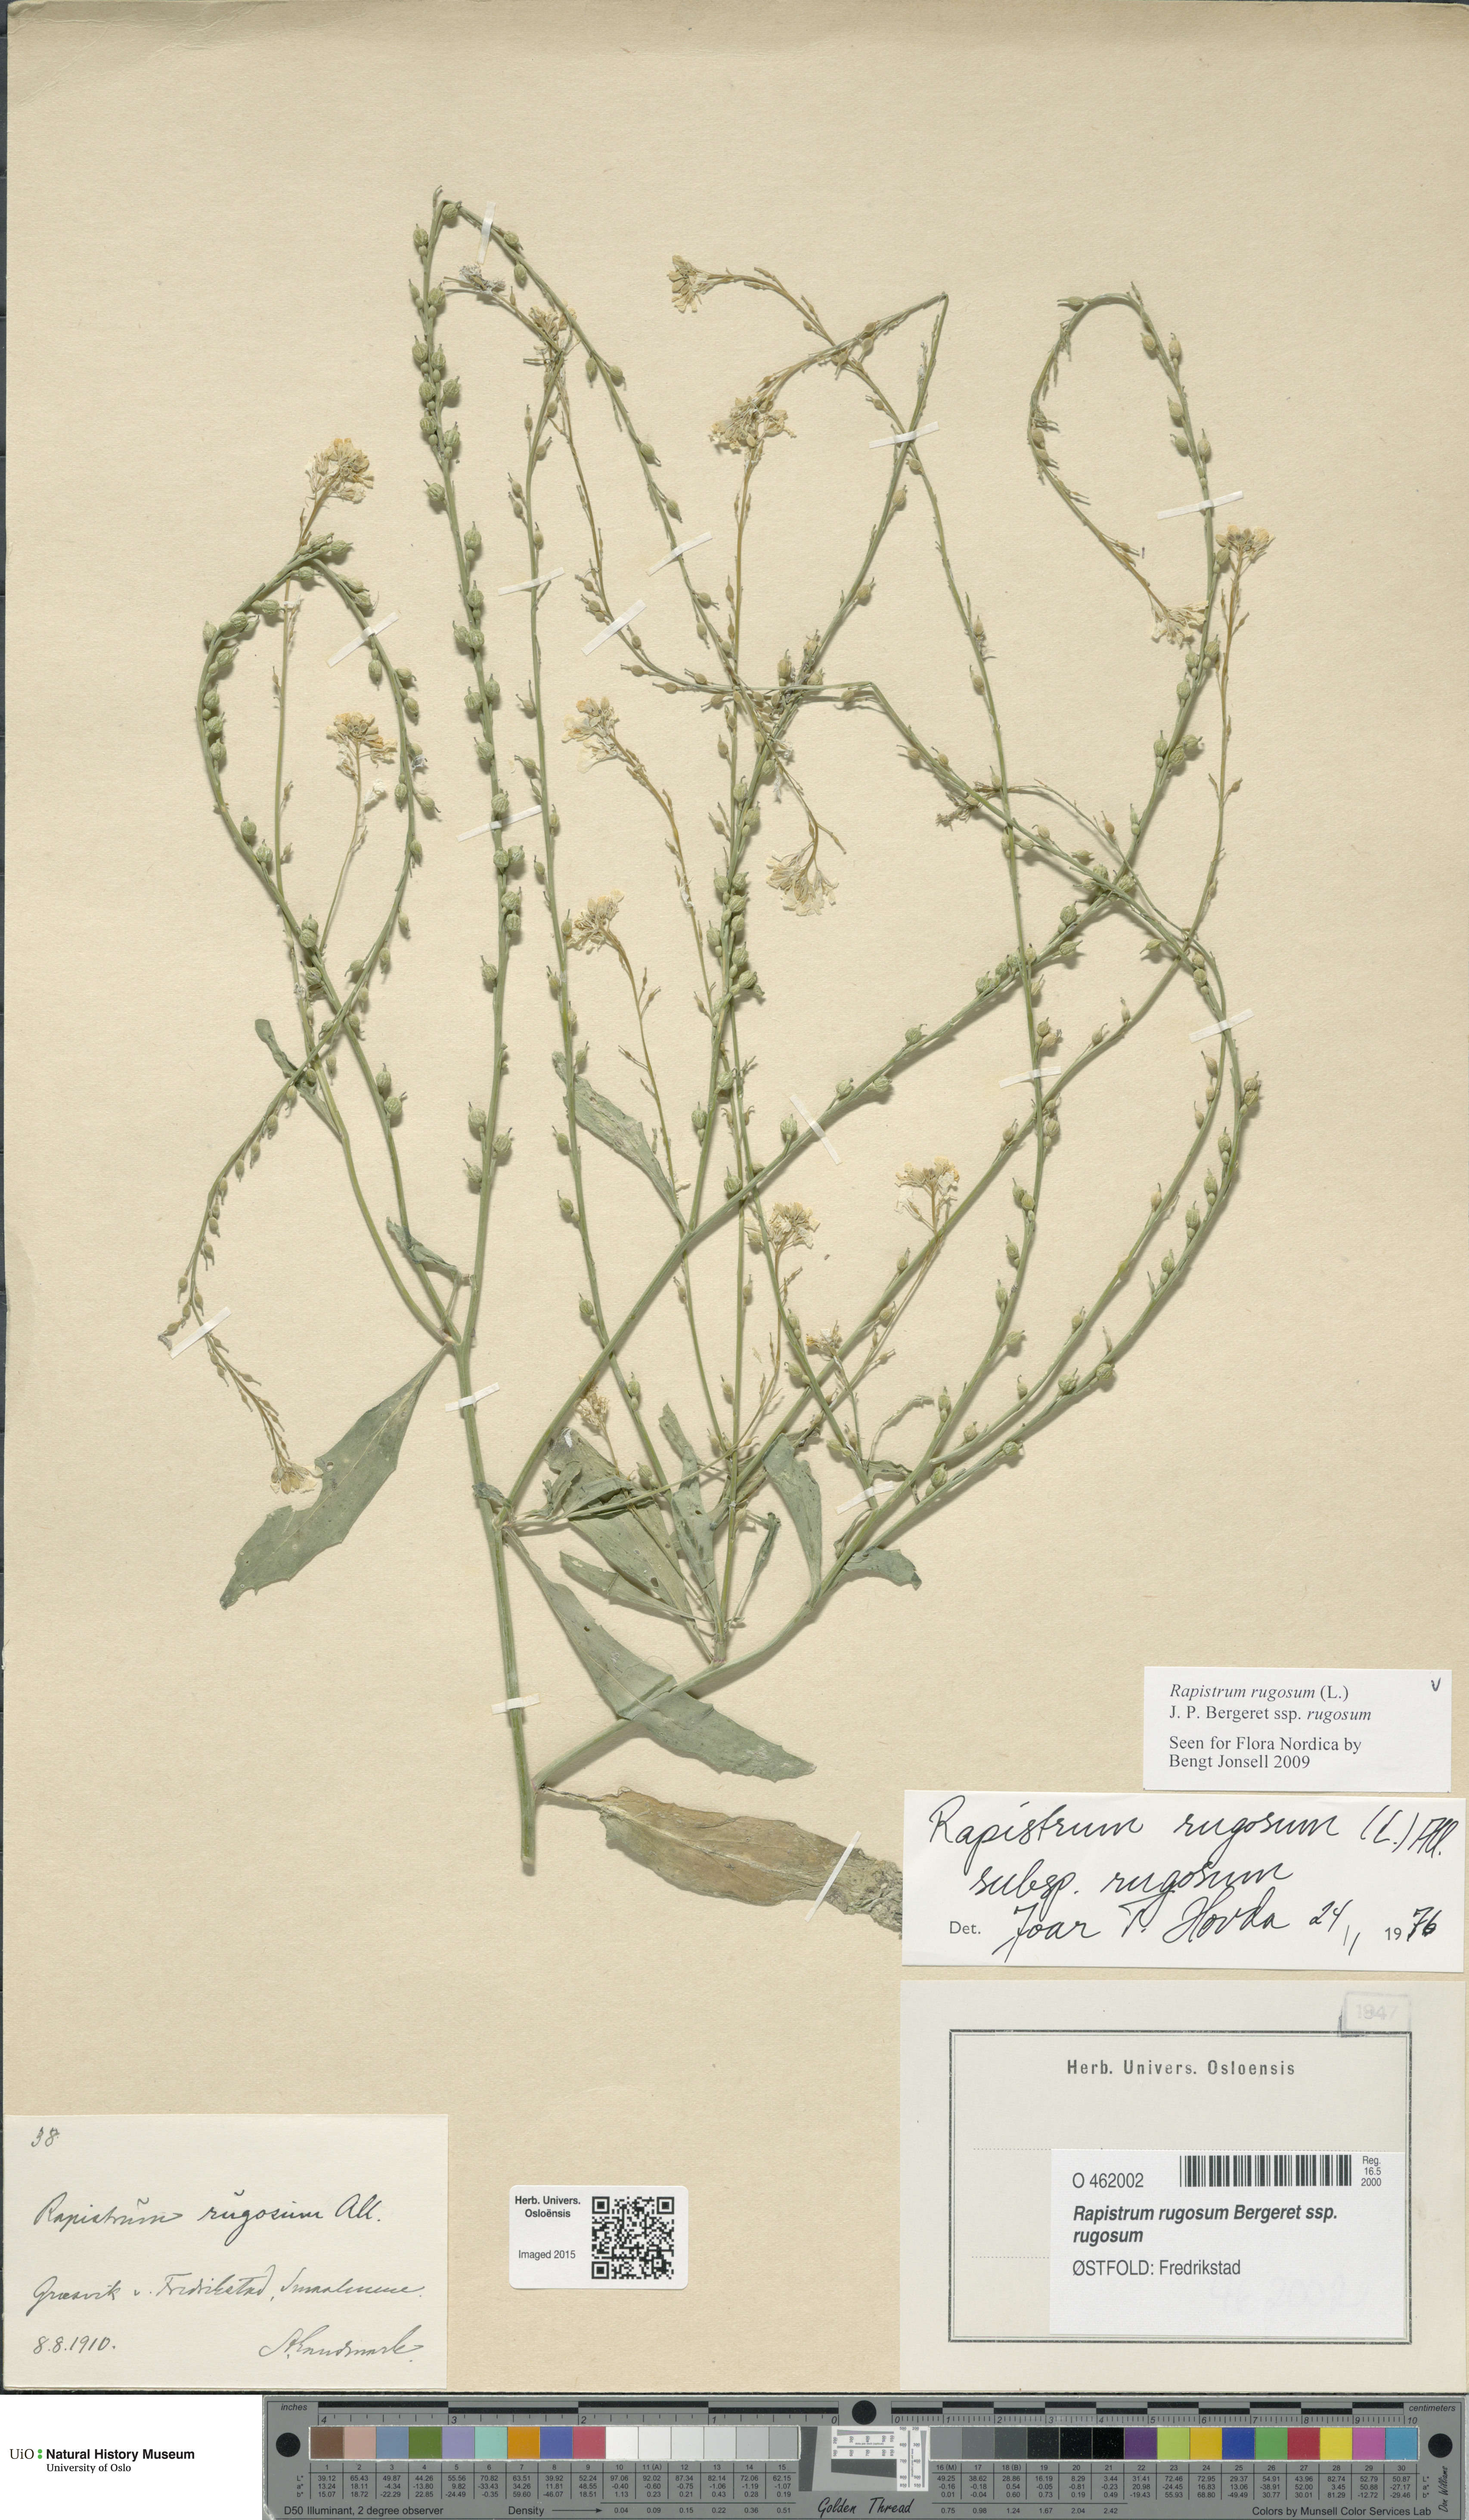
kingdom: Plantae
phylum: Tracheophyta
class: Magnoliopsida
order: Brassicales
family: Brassicaceae
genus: Rapistrum
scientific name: Rapistrum rugosum
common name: Annual bastardcabbage
